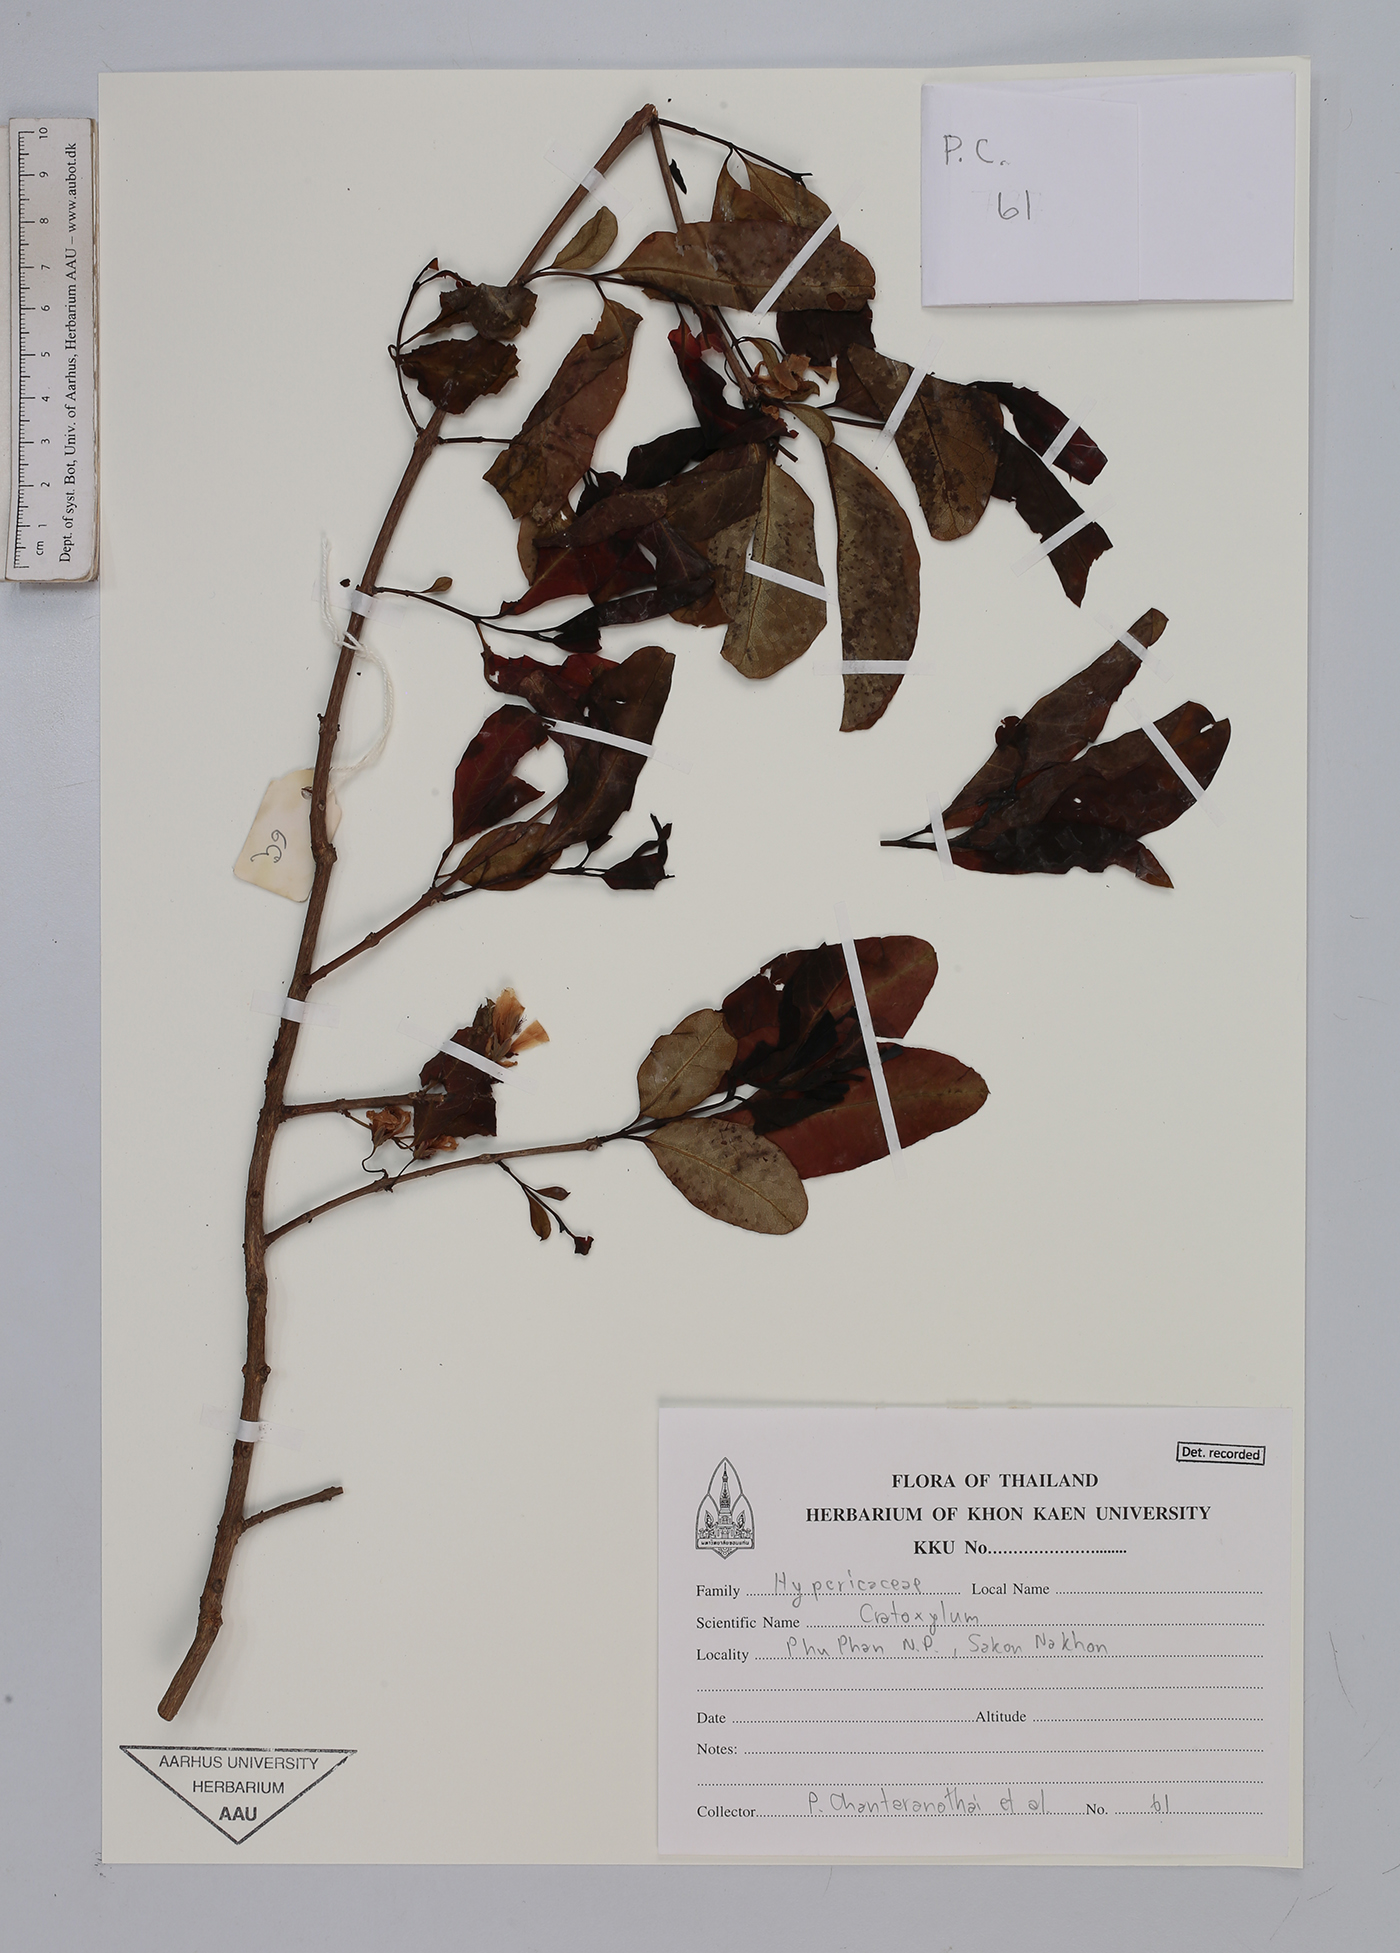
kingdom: Plantae
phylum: Tracheophyta
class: Magnoliopsida
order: Malpighiales
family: Hypericaceae
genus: Cratoxylum
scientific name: Cratoxylum
